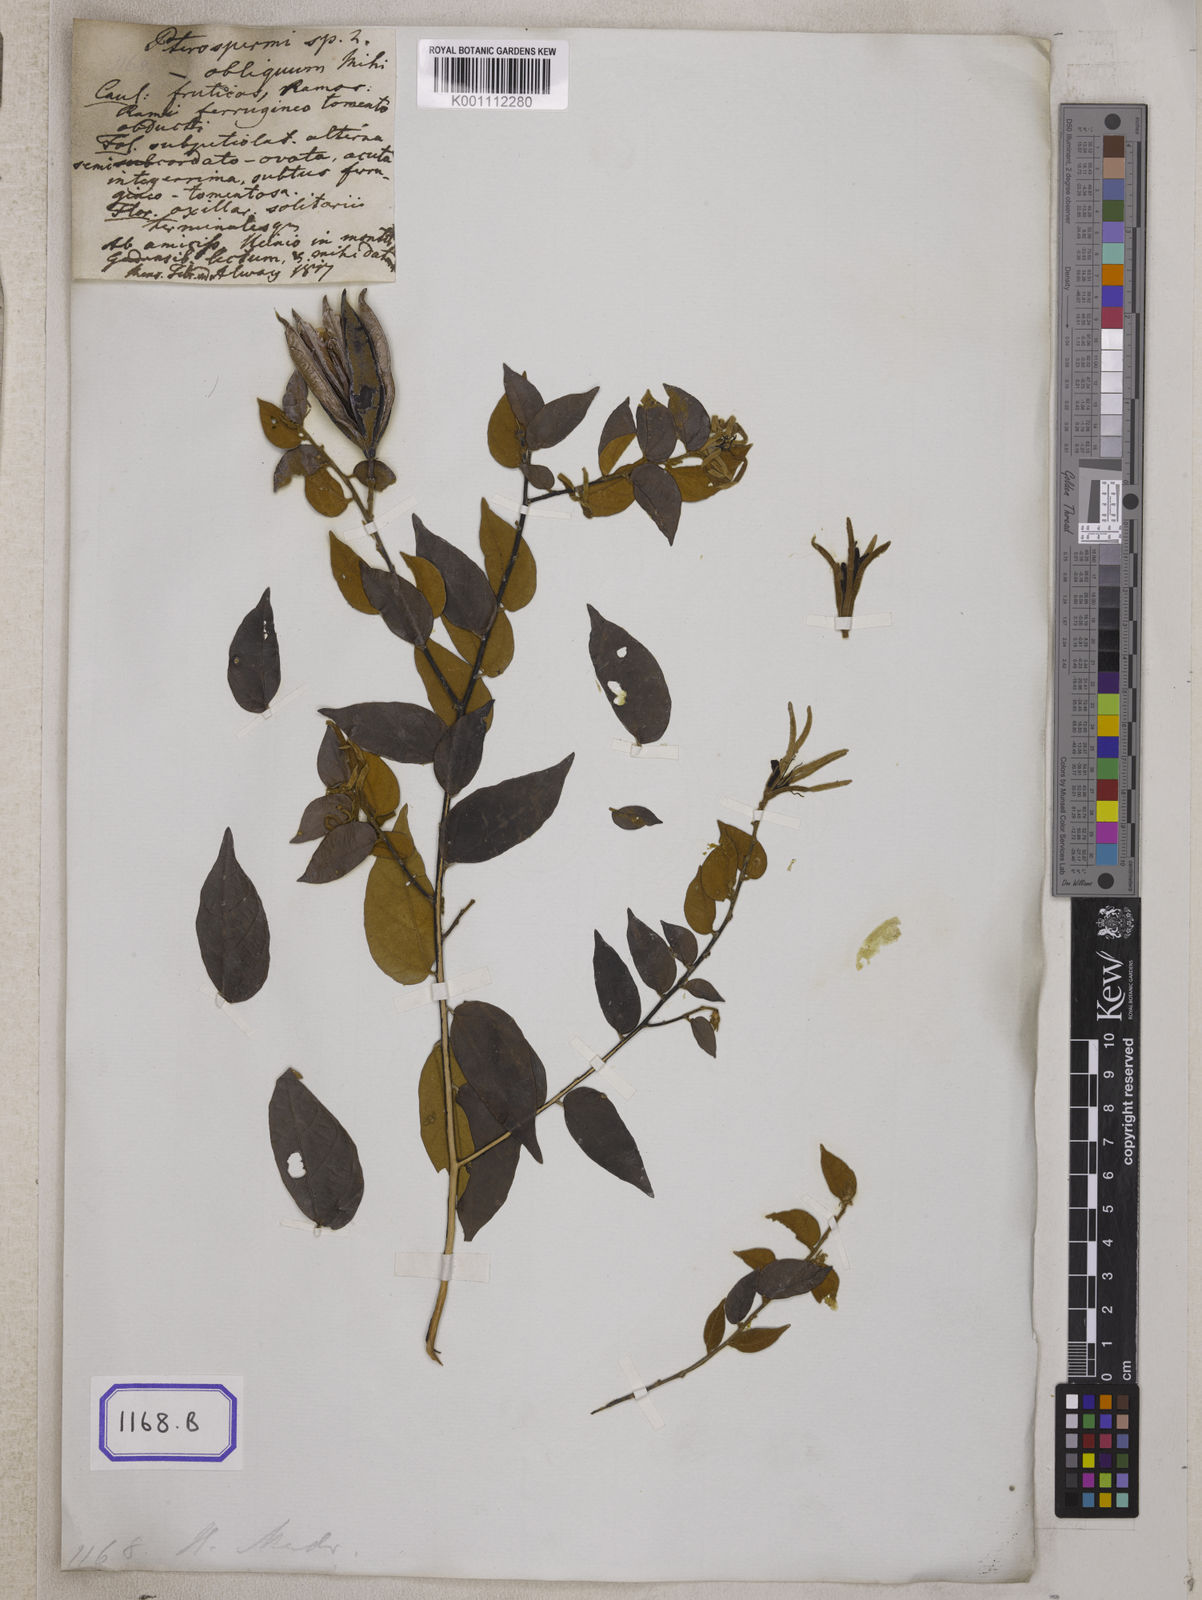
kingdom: Plantae
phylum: Tracheophyta
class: Magnoliopsida
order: Malvales
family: Malvaceae
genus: Pterospermum
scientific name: Pterospermum
